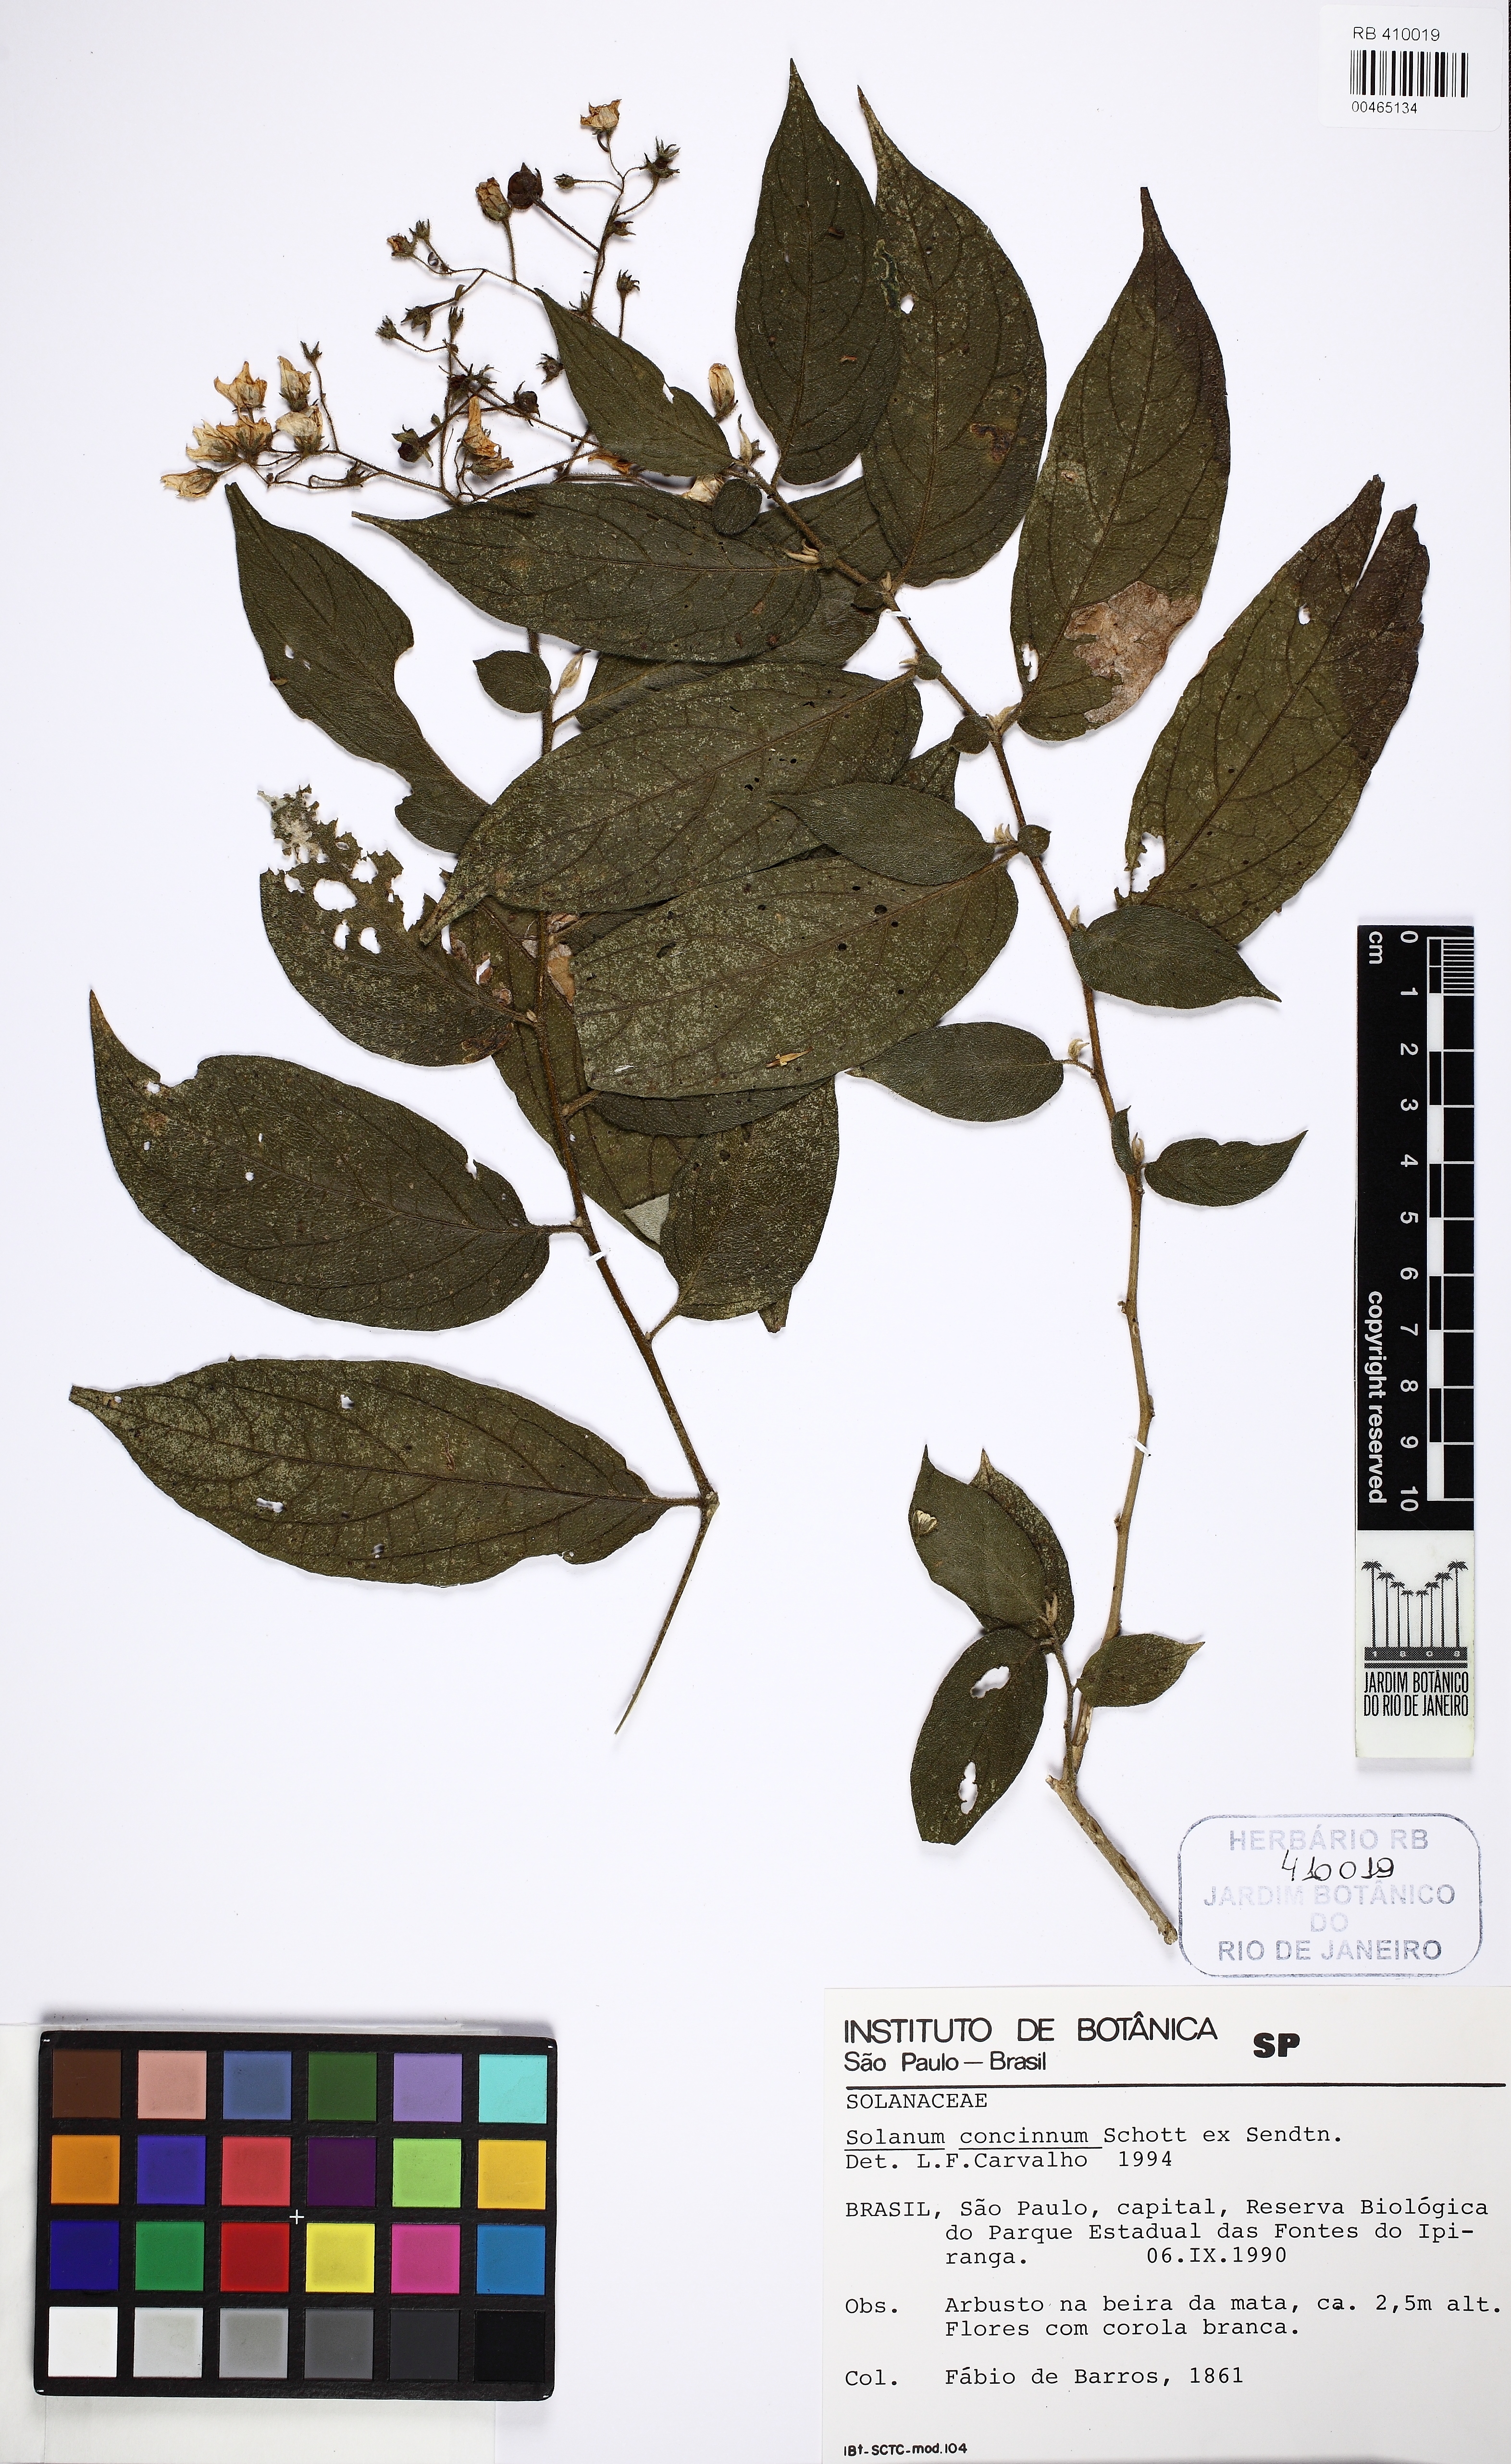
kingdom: Plantae
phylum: Tracheophyta
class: Magnoliopsida
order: Solanales
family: Solanaceae
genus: Solanum
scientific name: Solanum concinnum
